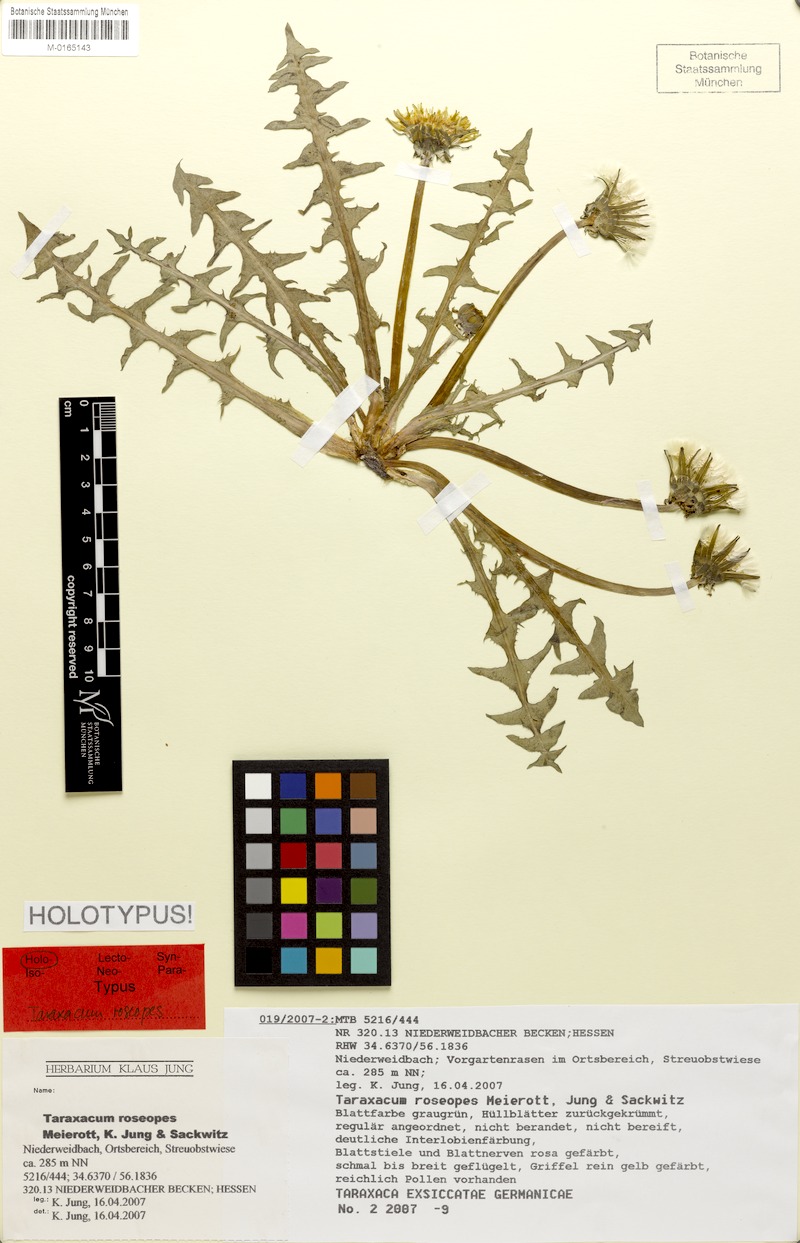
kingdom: Plantae
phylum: Tracheophyta
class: Magnoliopsida
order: Asterales
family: Asteraceae
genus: Taraxacum
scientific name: Taraxacum roseopes
